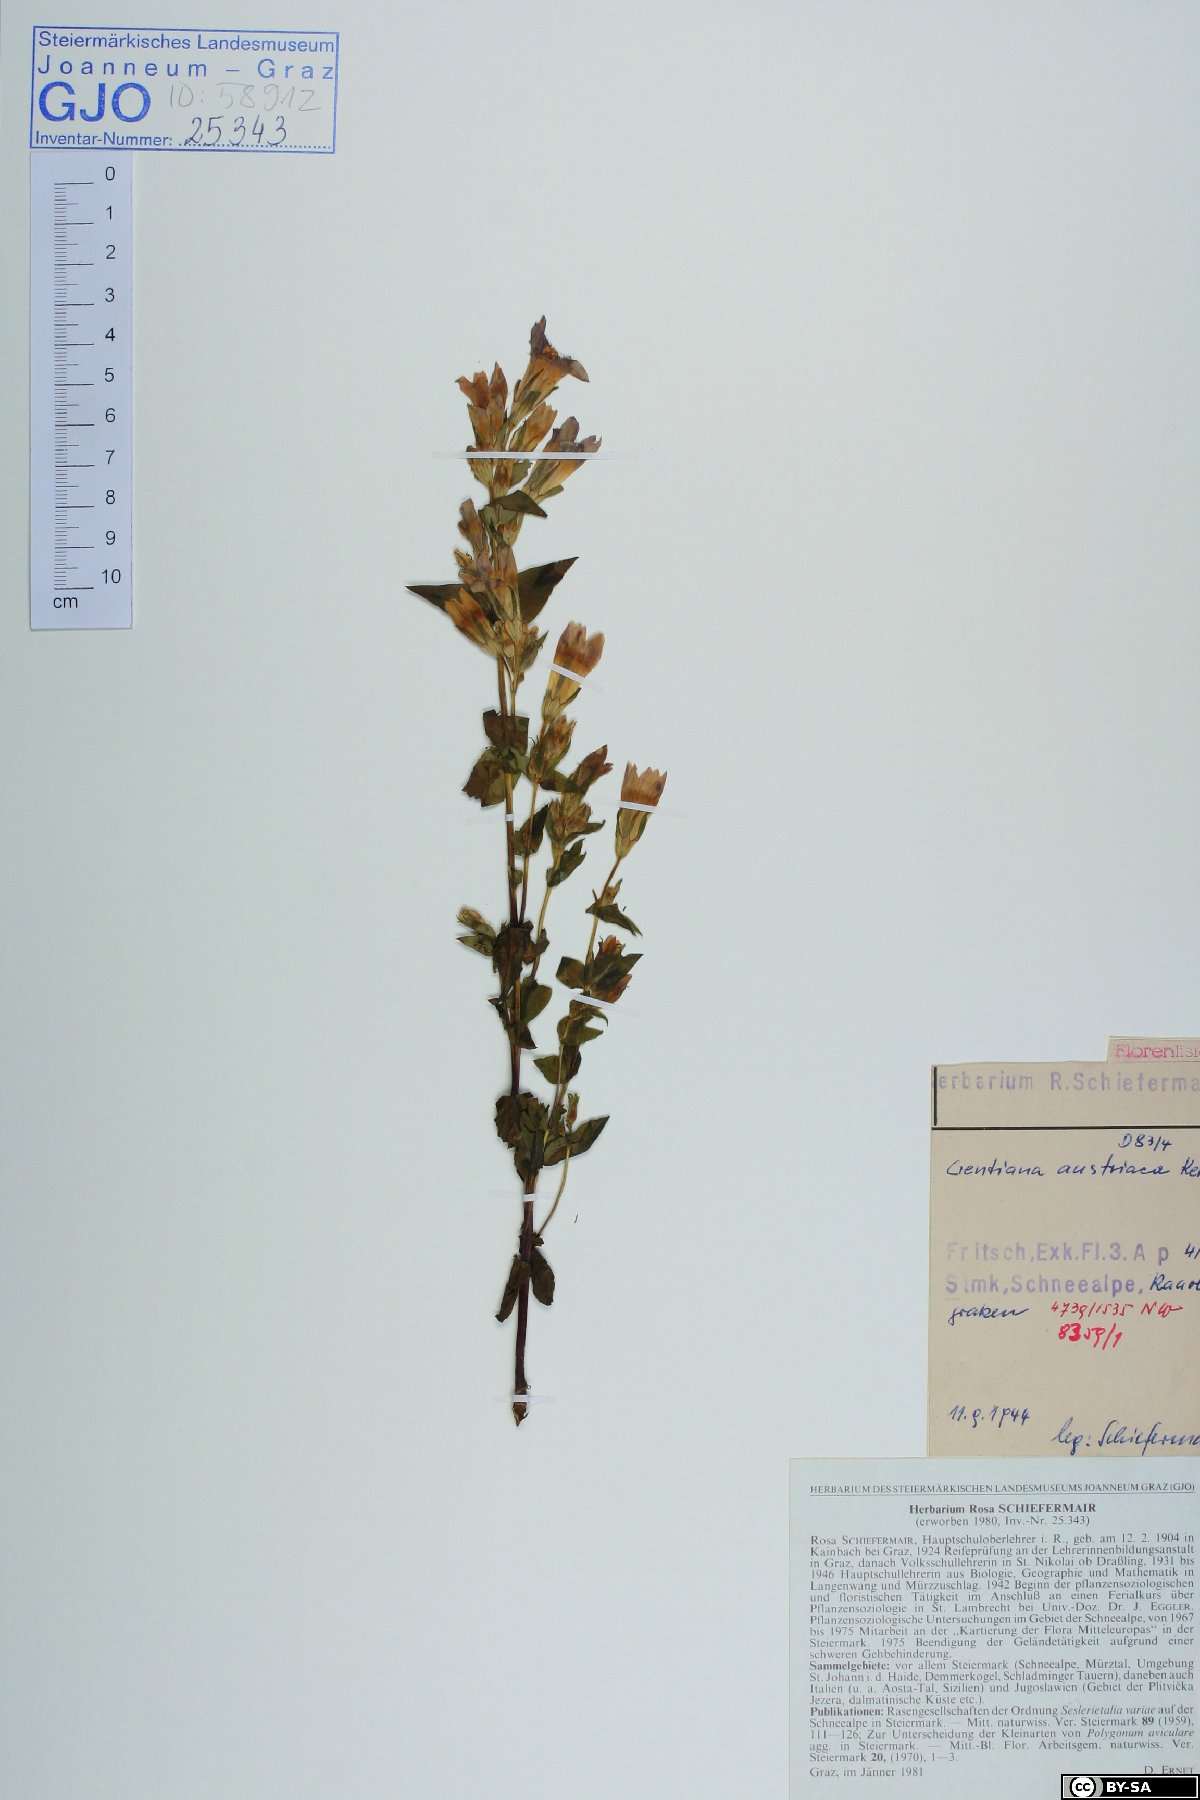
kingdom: Plantae
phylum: Tracheophyta
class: Magnoliopsida
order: Gentianales
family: Gentianaceae
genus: Gentianella
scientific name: Gentianella austriaca
